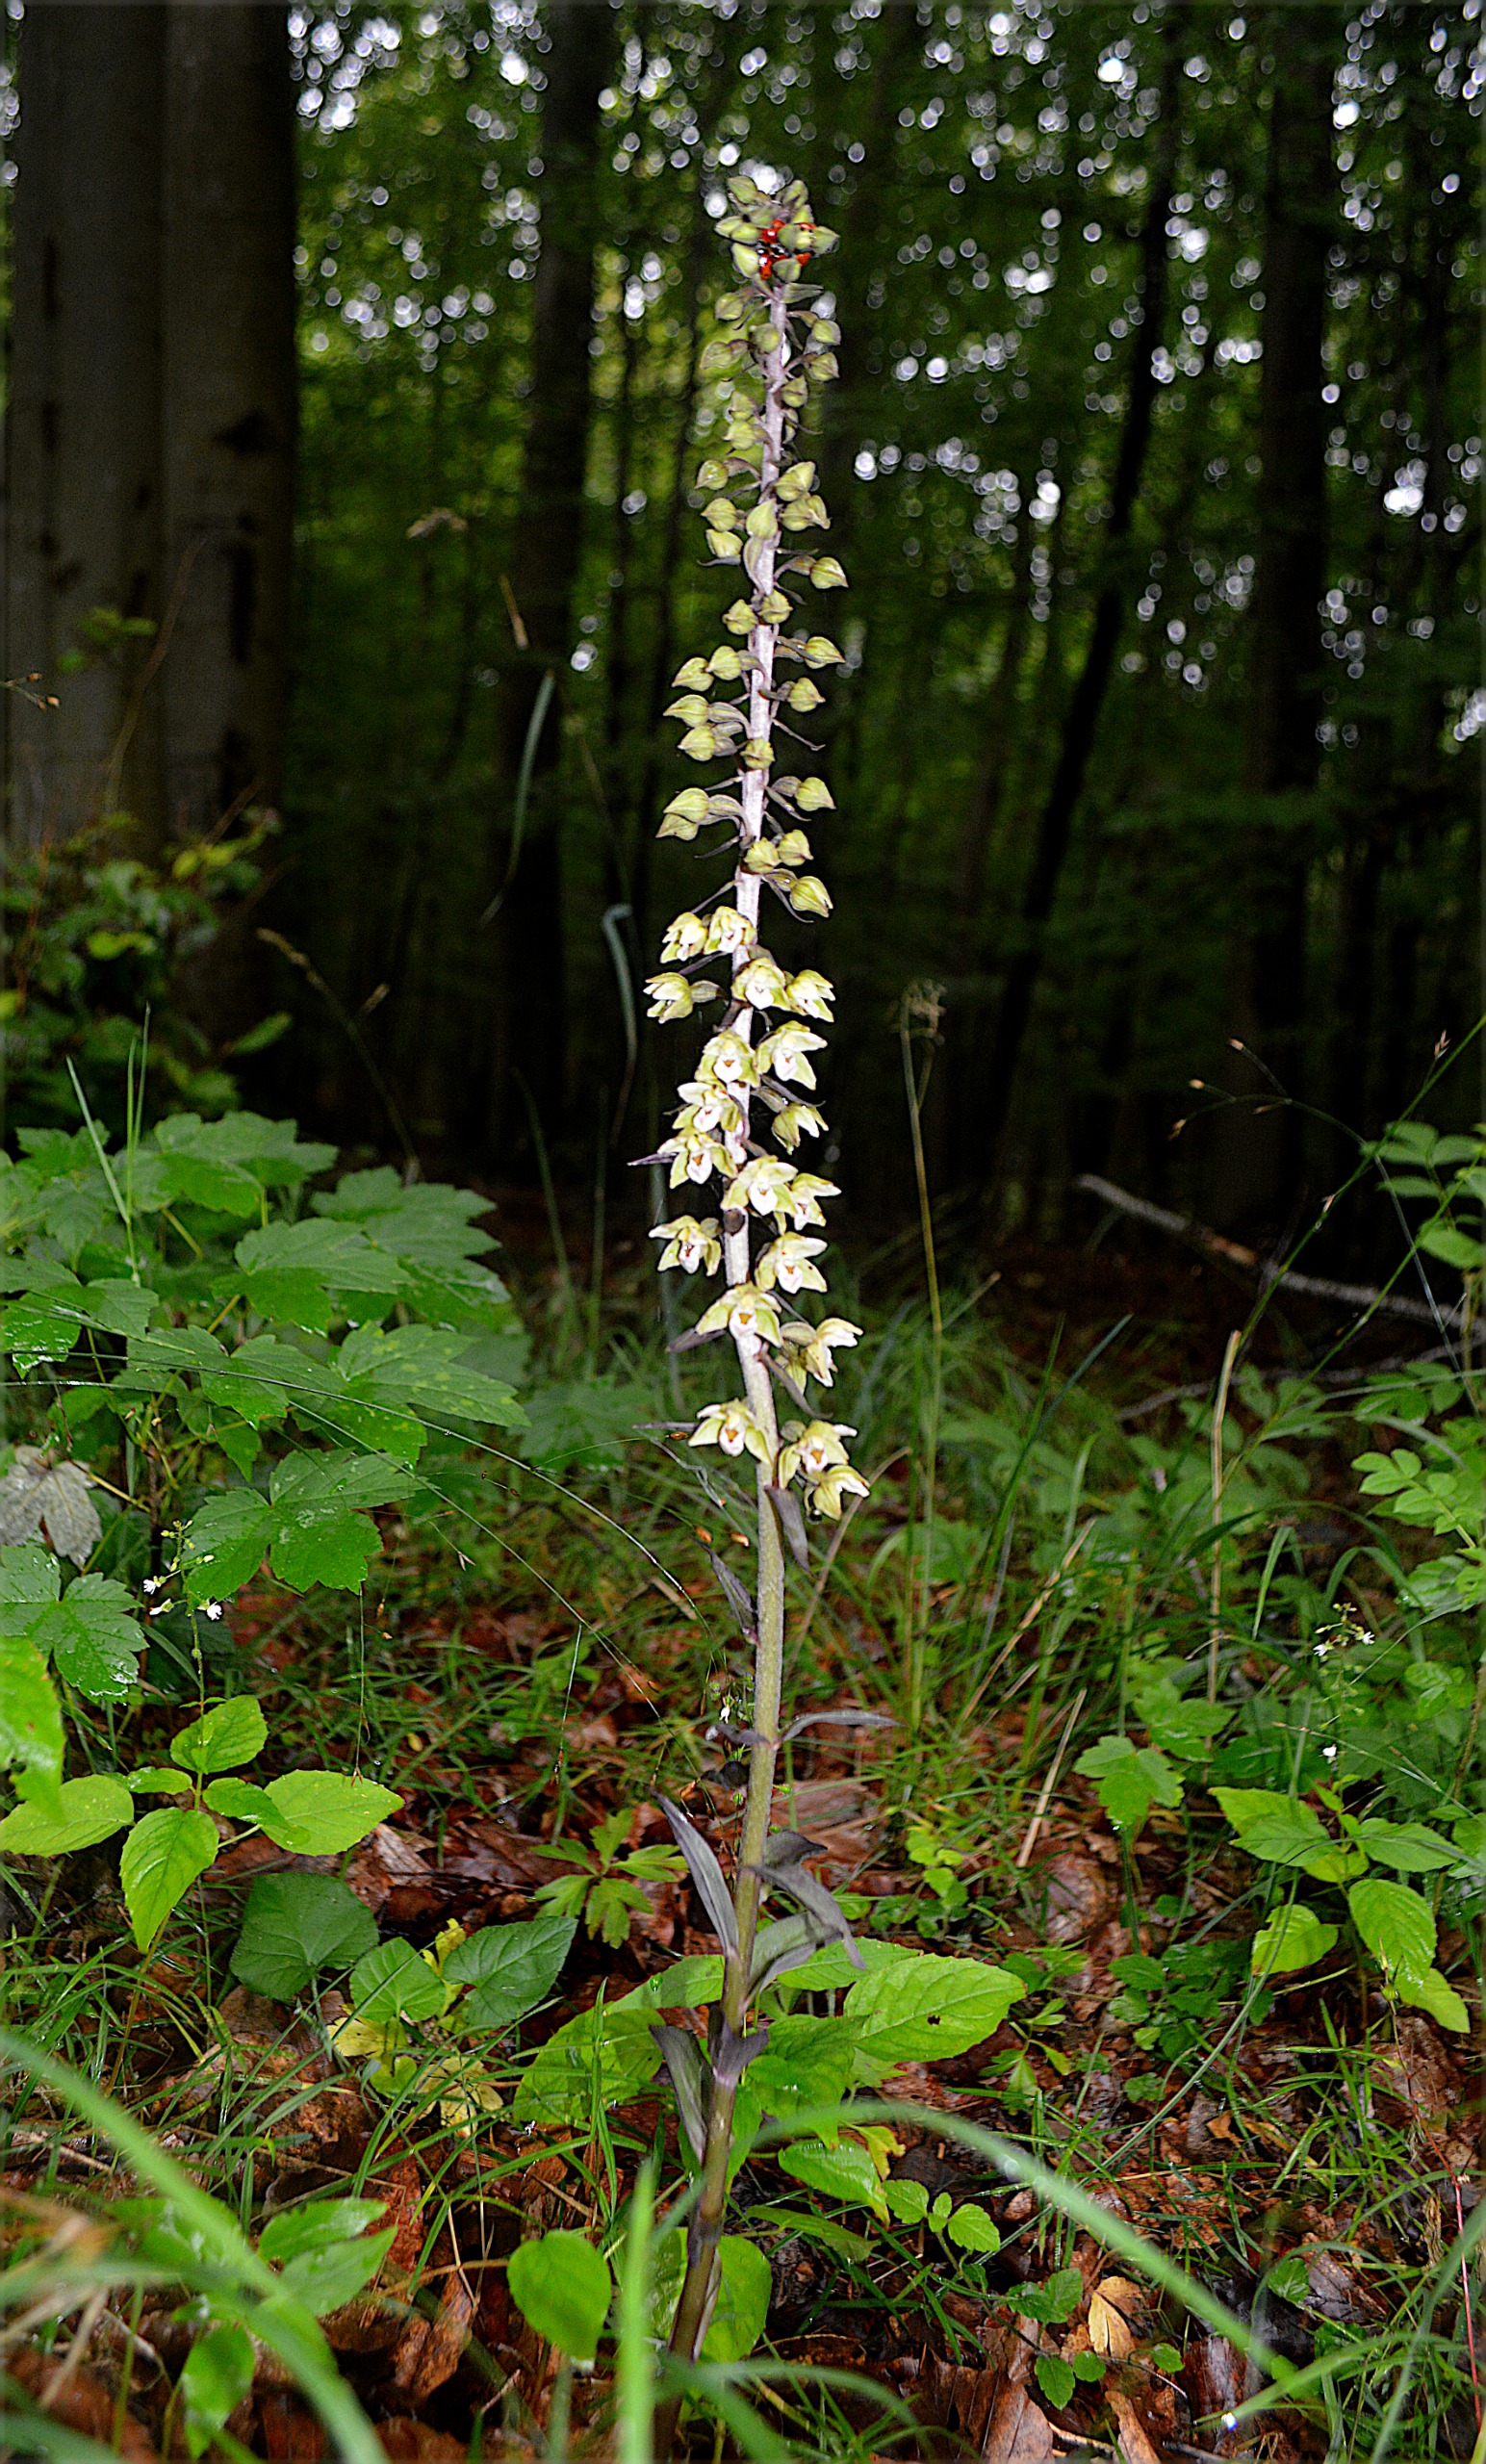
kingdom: Plantae
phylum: Tracheophyta
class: Liliopsida
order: Asparagales
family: Orchidaceae
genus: Epipactis
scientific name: Epipactis purpurata
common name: Tætblomstret hullæbe
